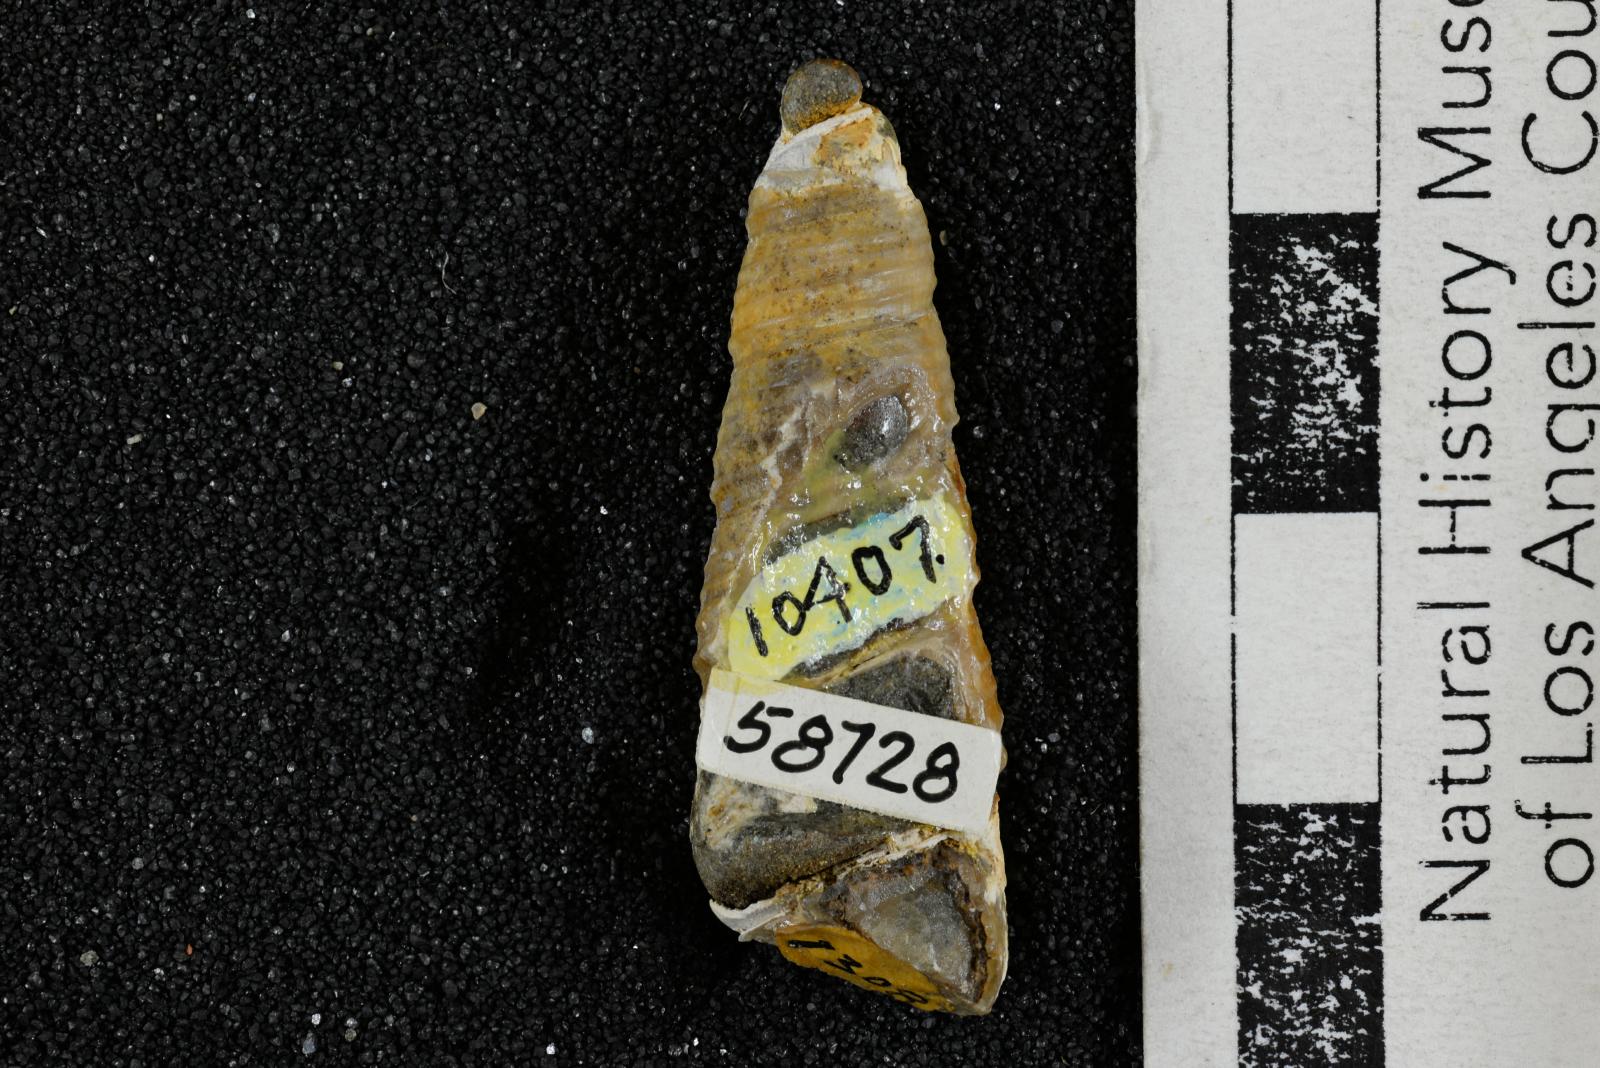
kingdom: Animalia
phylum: Mollusca
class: Gastropoda
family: Turritellidae
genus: Turritella
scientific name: Turritella chicoensis
